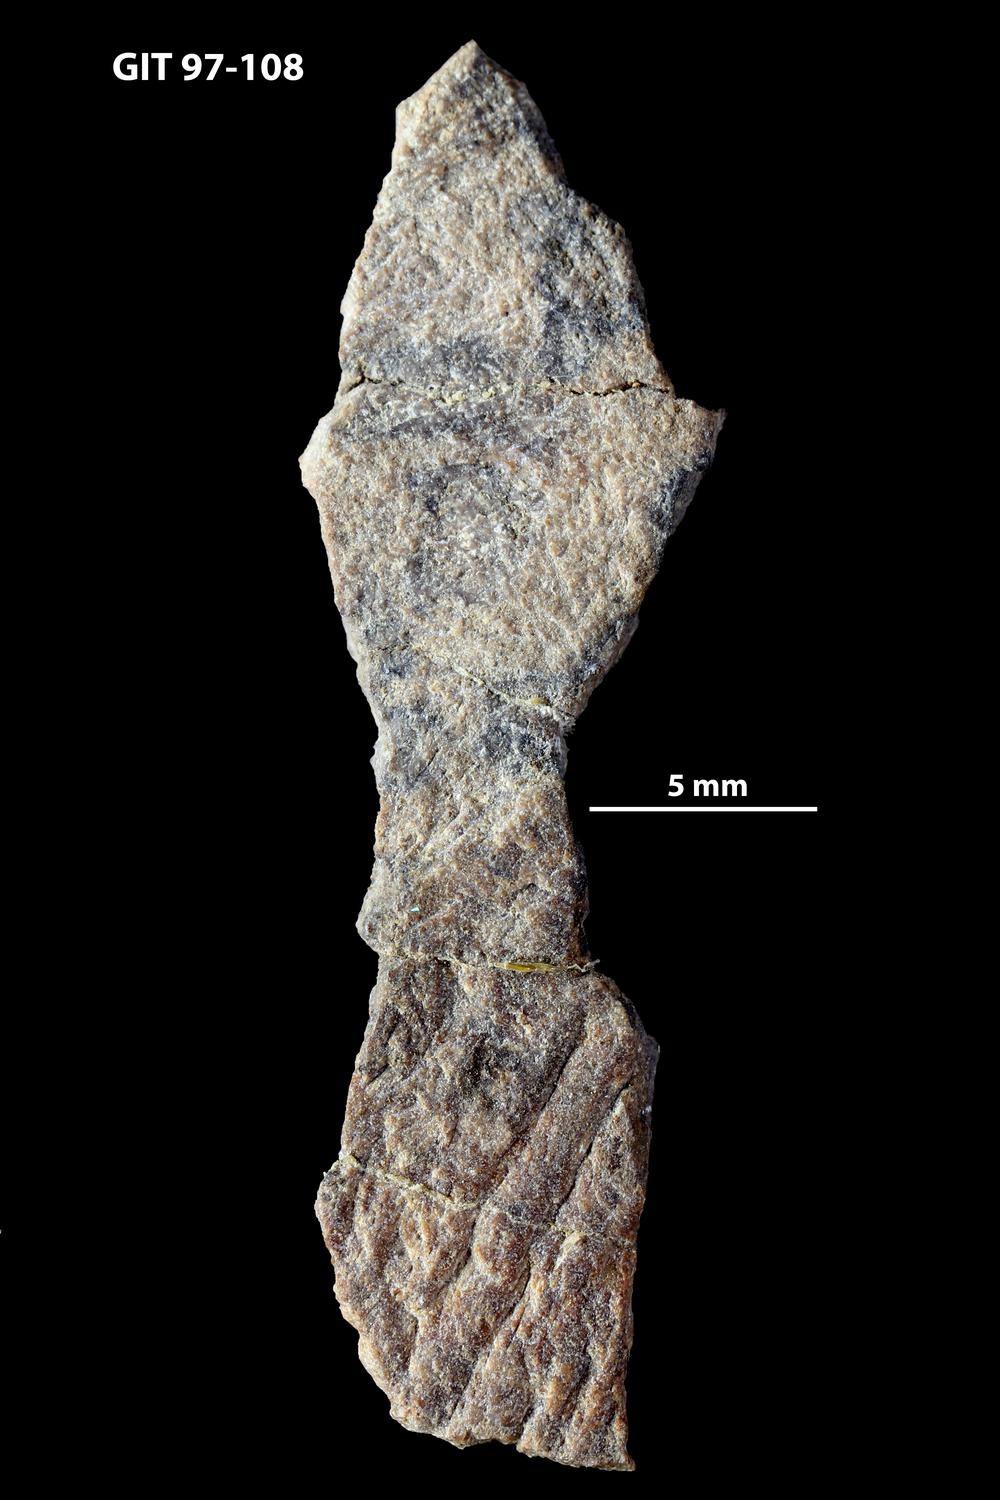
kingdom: Animalia
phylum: Chordata
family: Holonematidae
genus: Holonema
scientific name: Holonema
